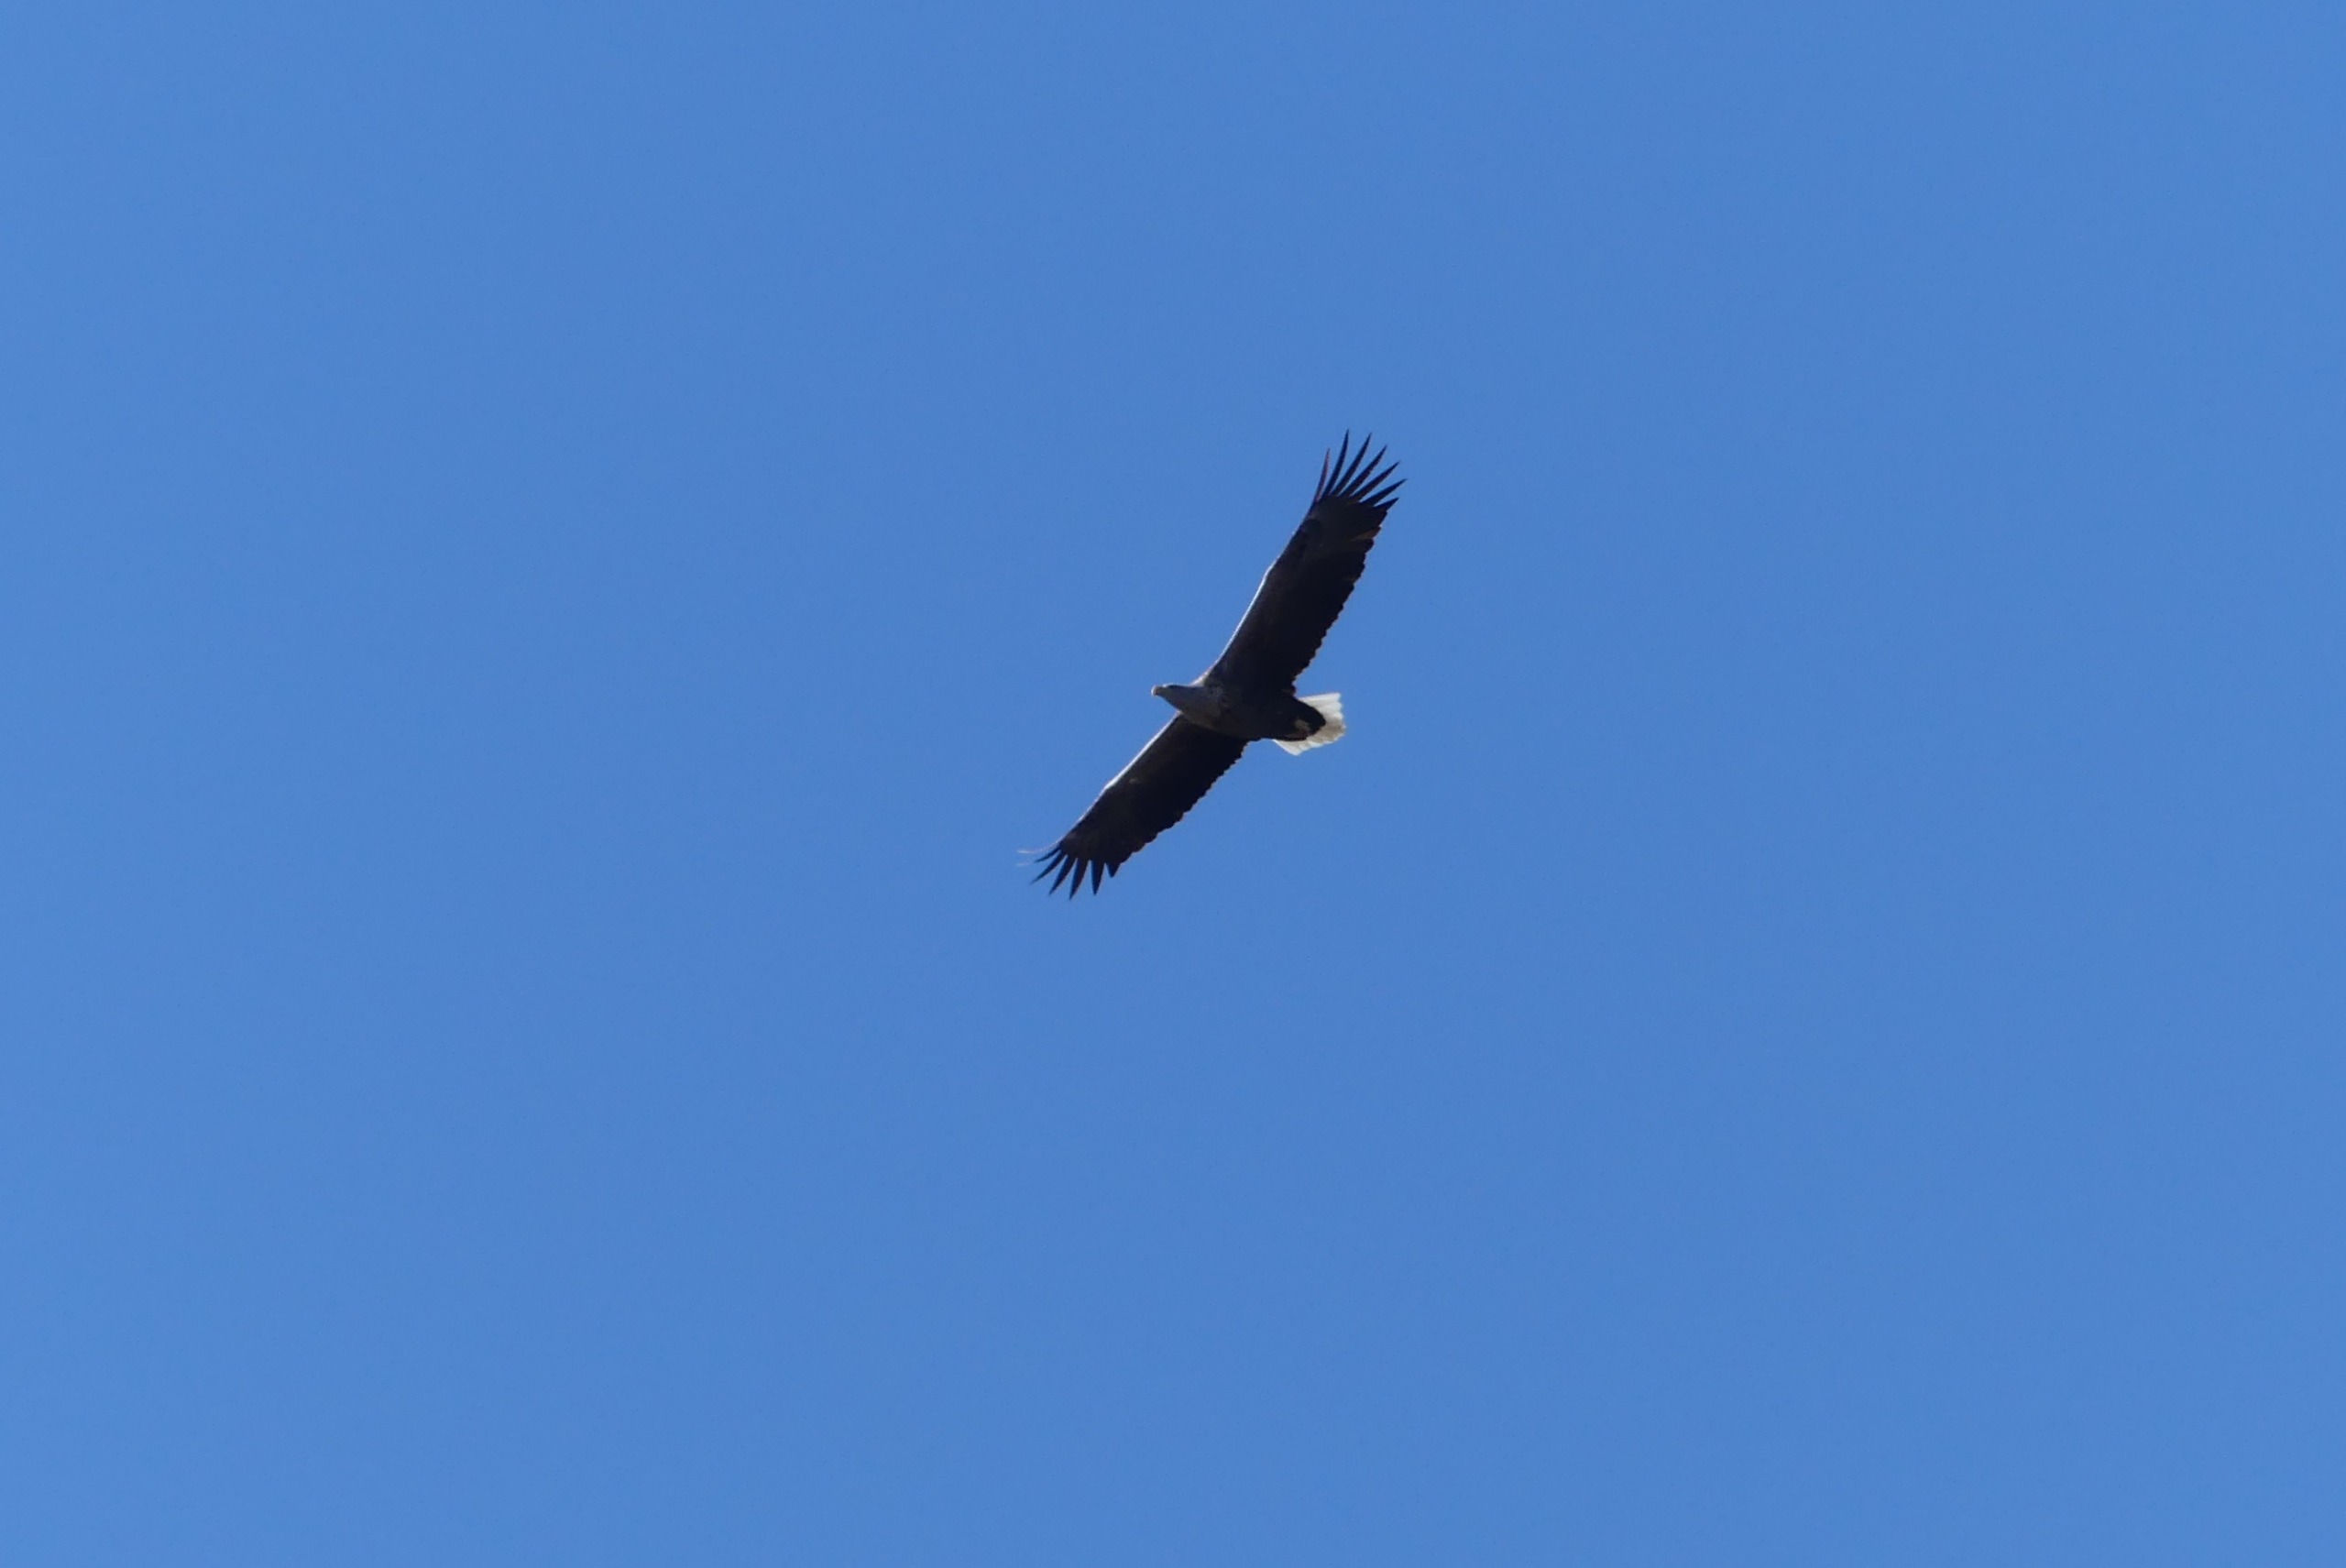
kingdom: Animalia
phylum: Chordata
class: Aves
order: Accipitriformes
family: Accipitridae
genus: Haliaeetus
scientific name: Haliaeetus albicilla
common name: Havørn
